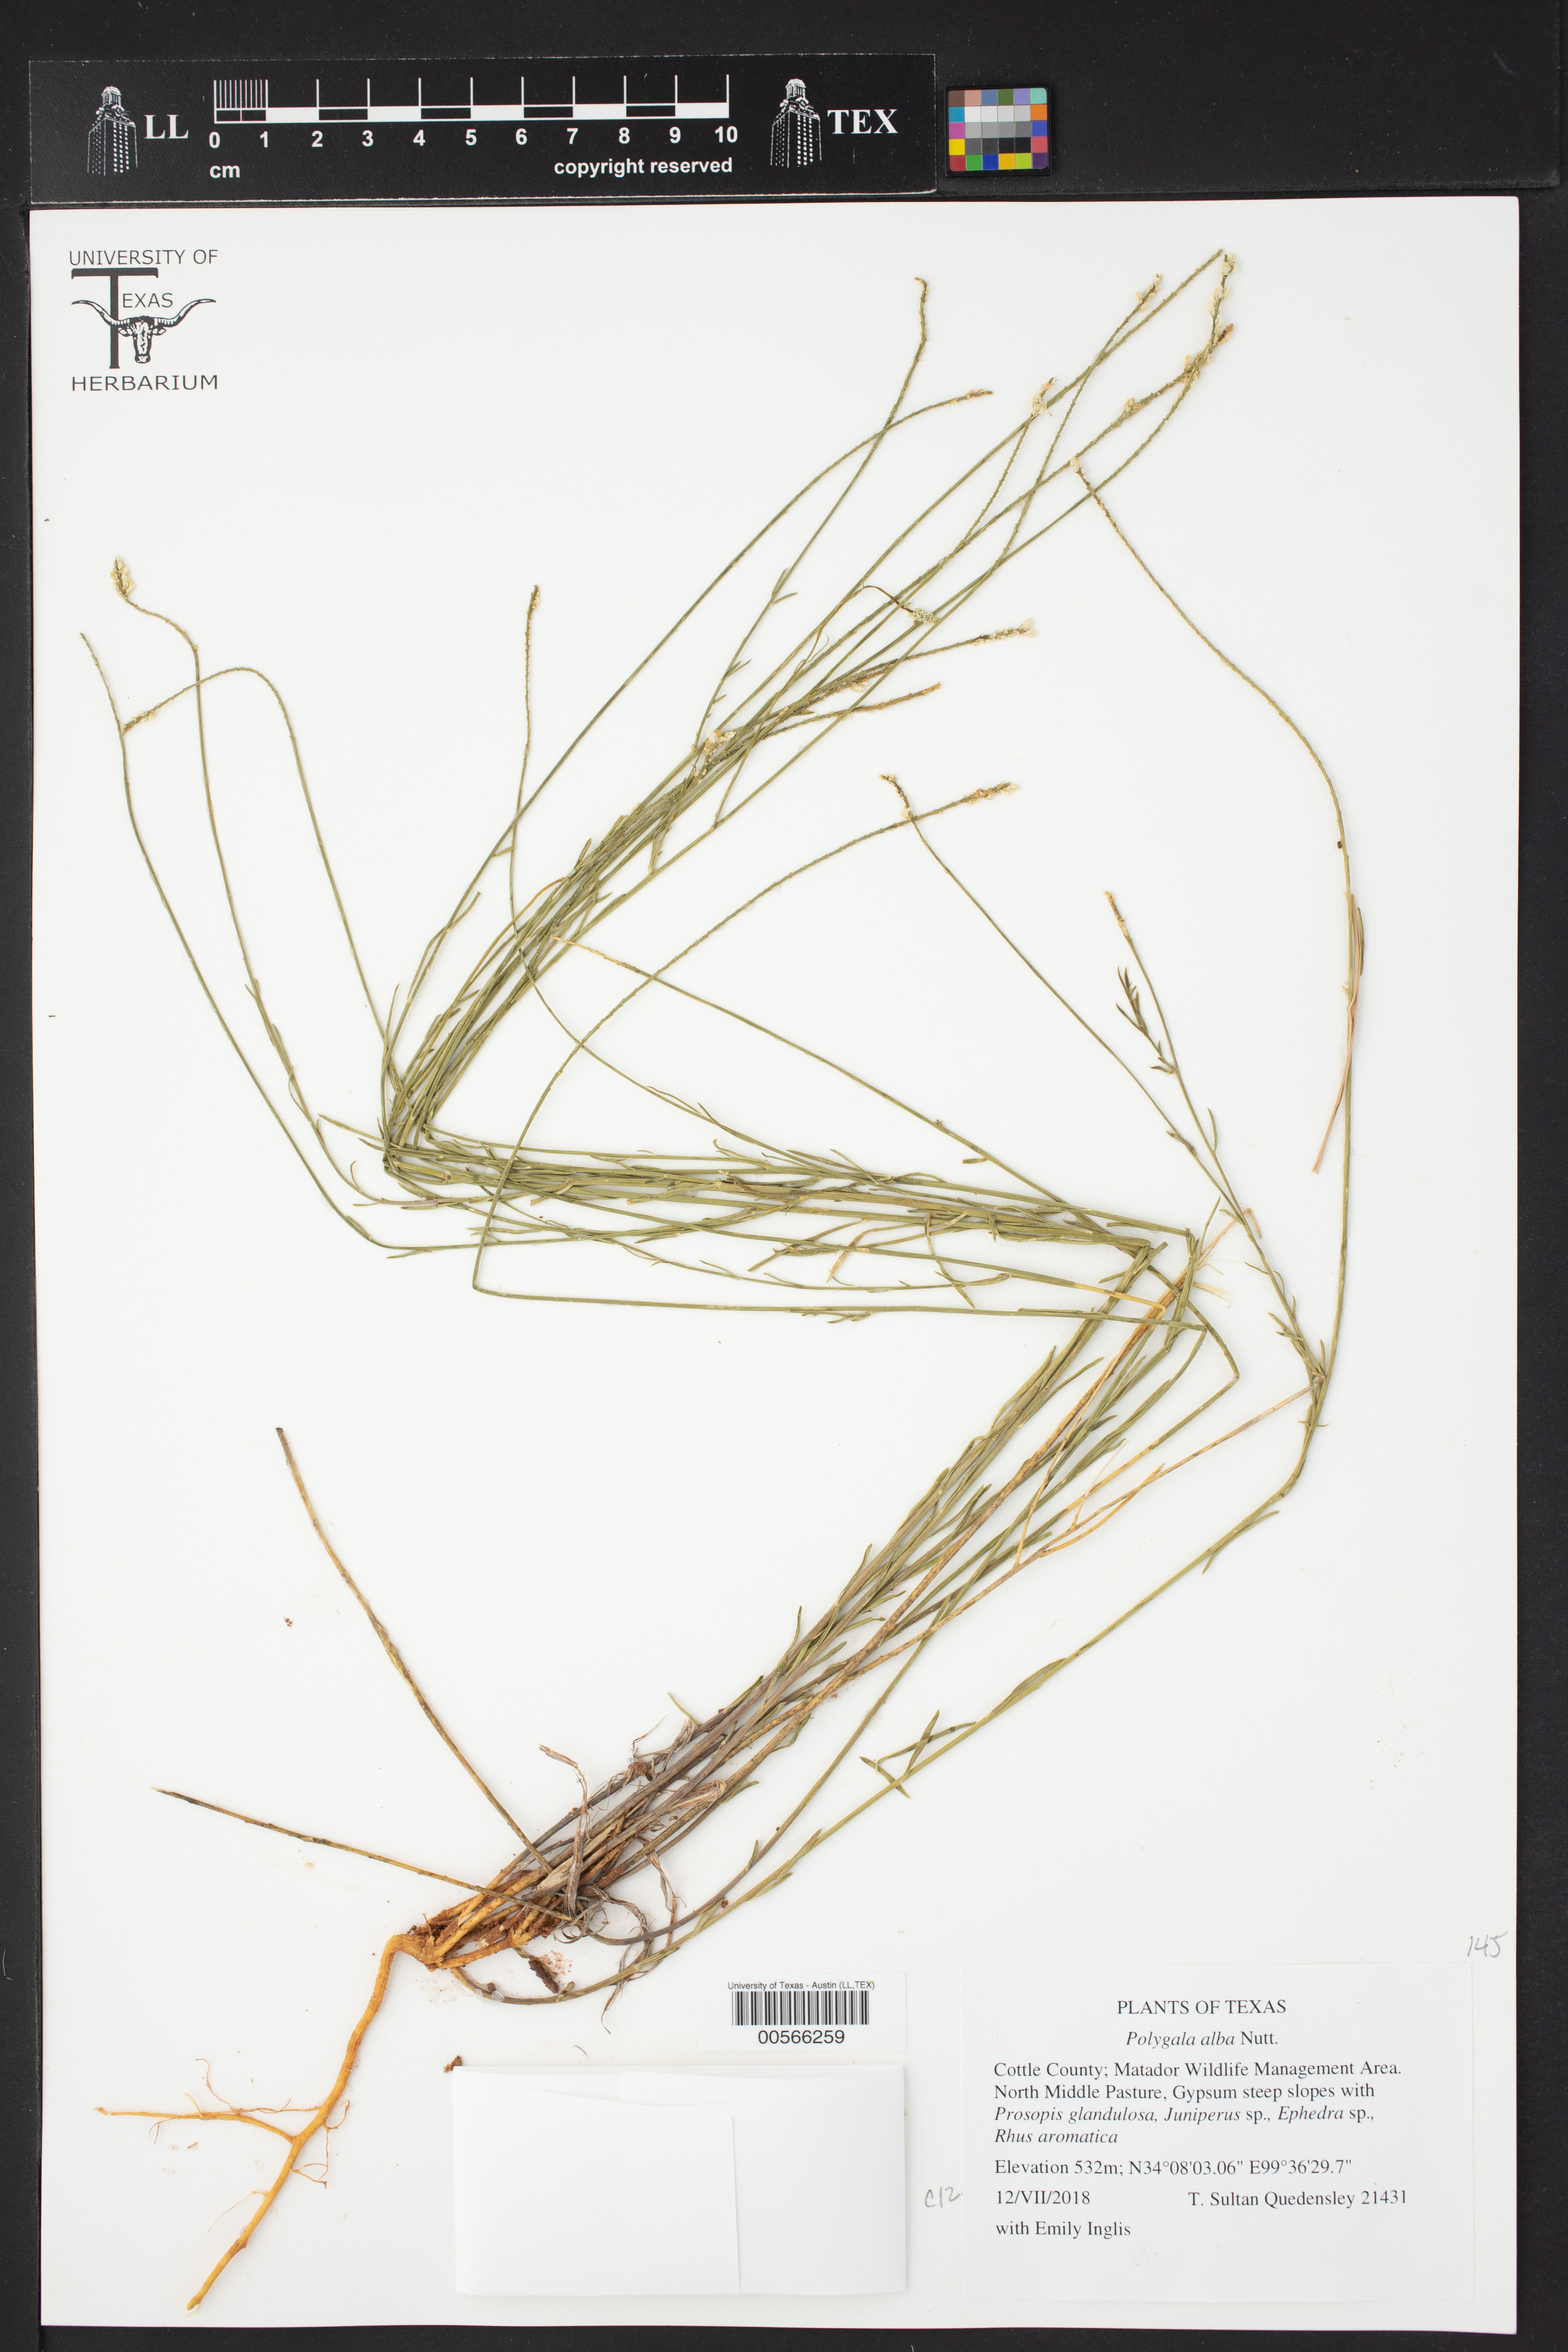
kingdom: Plantae
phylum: Tracheophyta
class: Magnoliopsida
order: Fabales
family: Polygalaceae
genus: Polygala
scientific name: Polygala alba
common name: White milkwort
